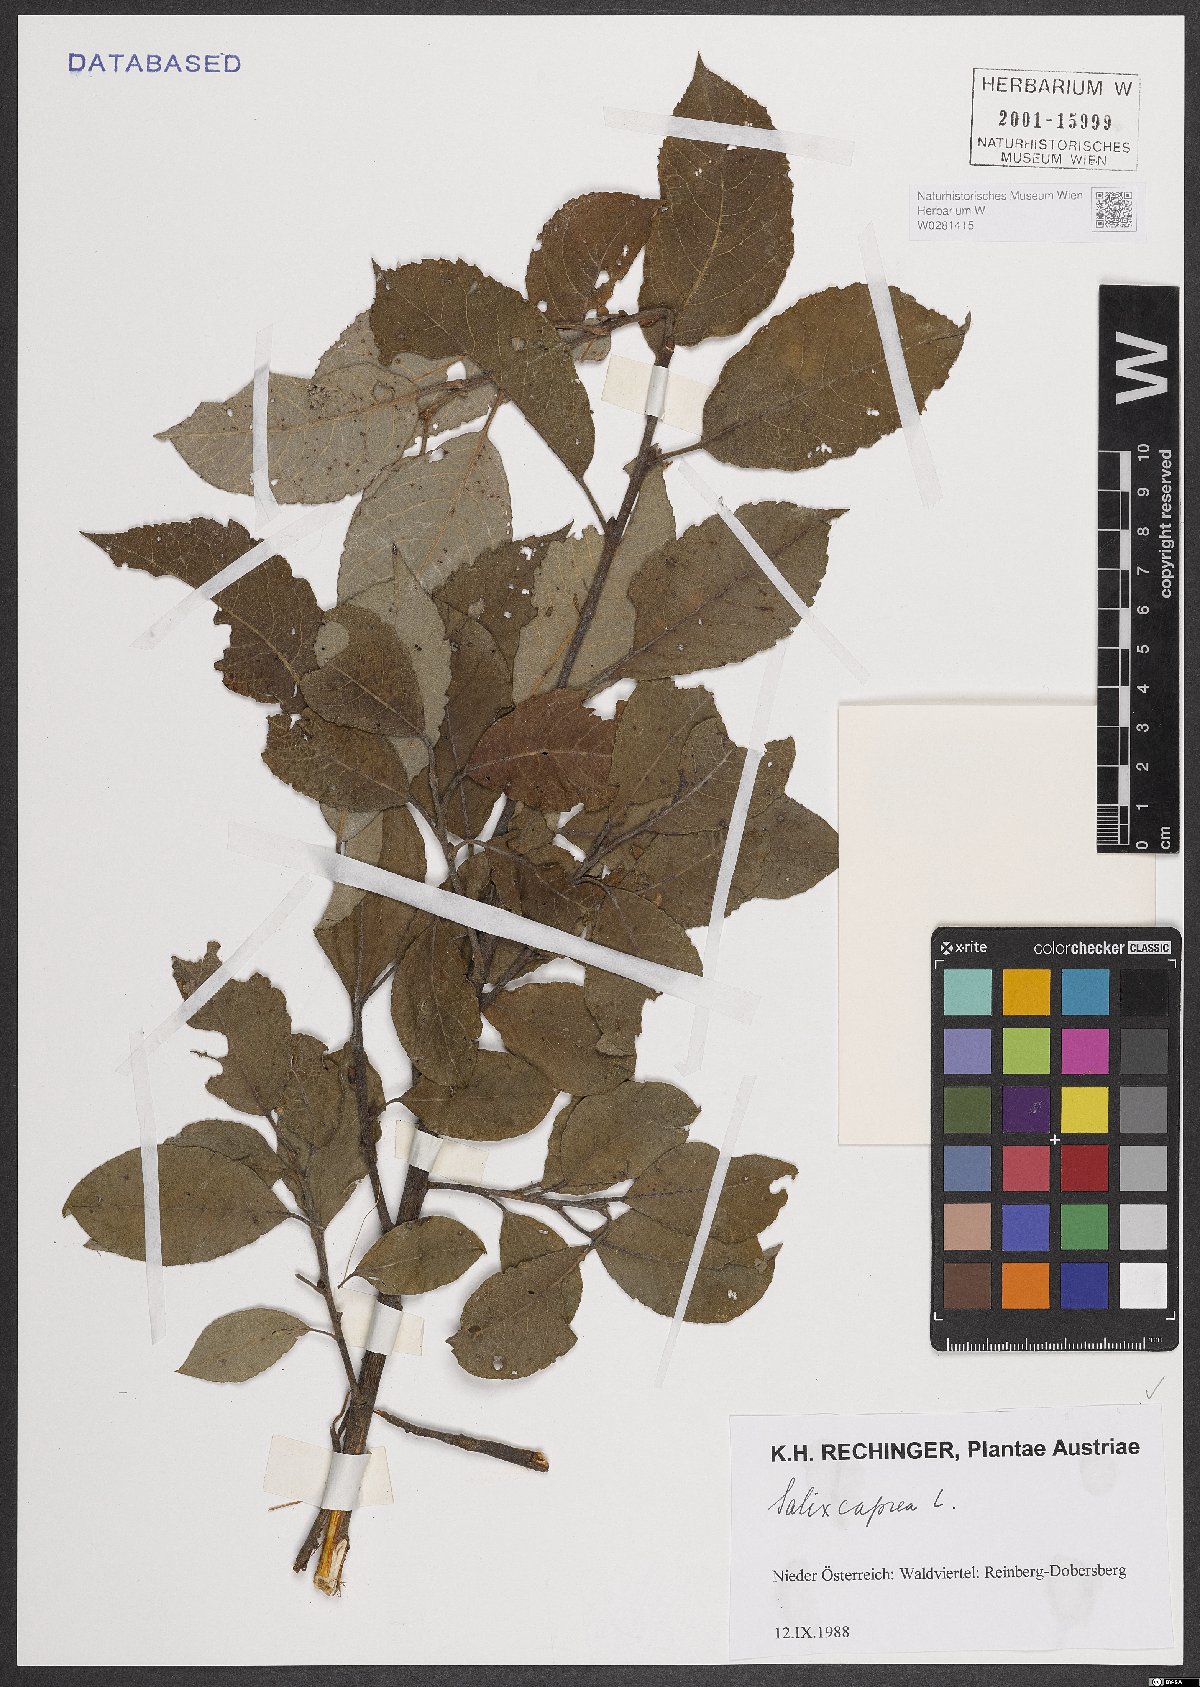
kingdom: Plantae
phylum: Tracheophyta
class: Magnoliopsida
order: Malpighiales
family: Salicaceae
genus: Salix
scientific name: Salix caprea
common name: Goat willow
